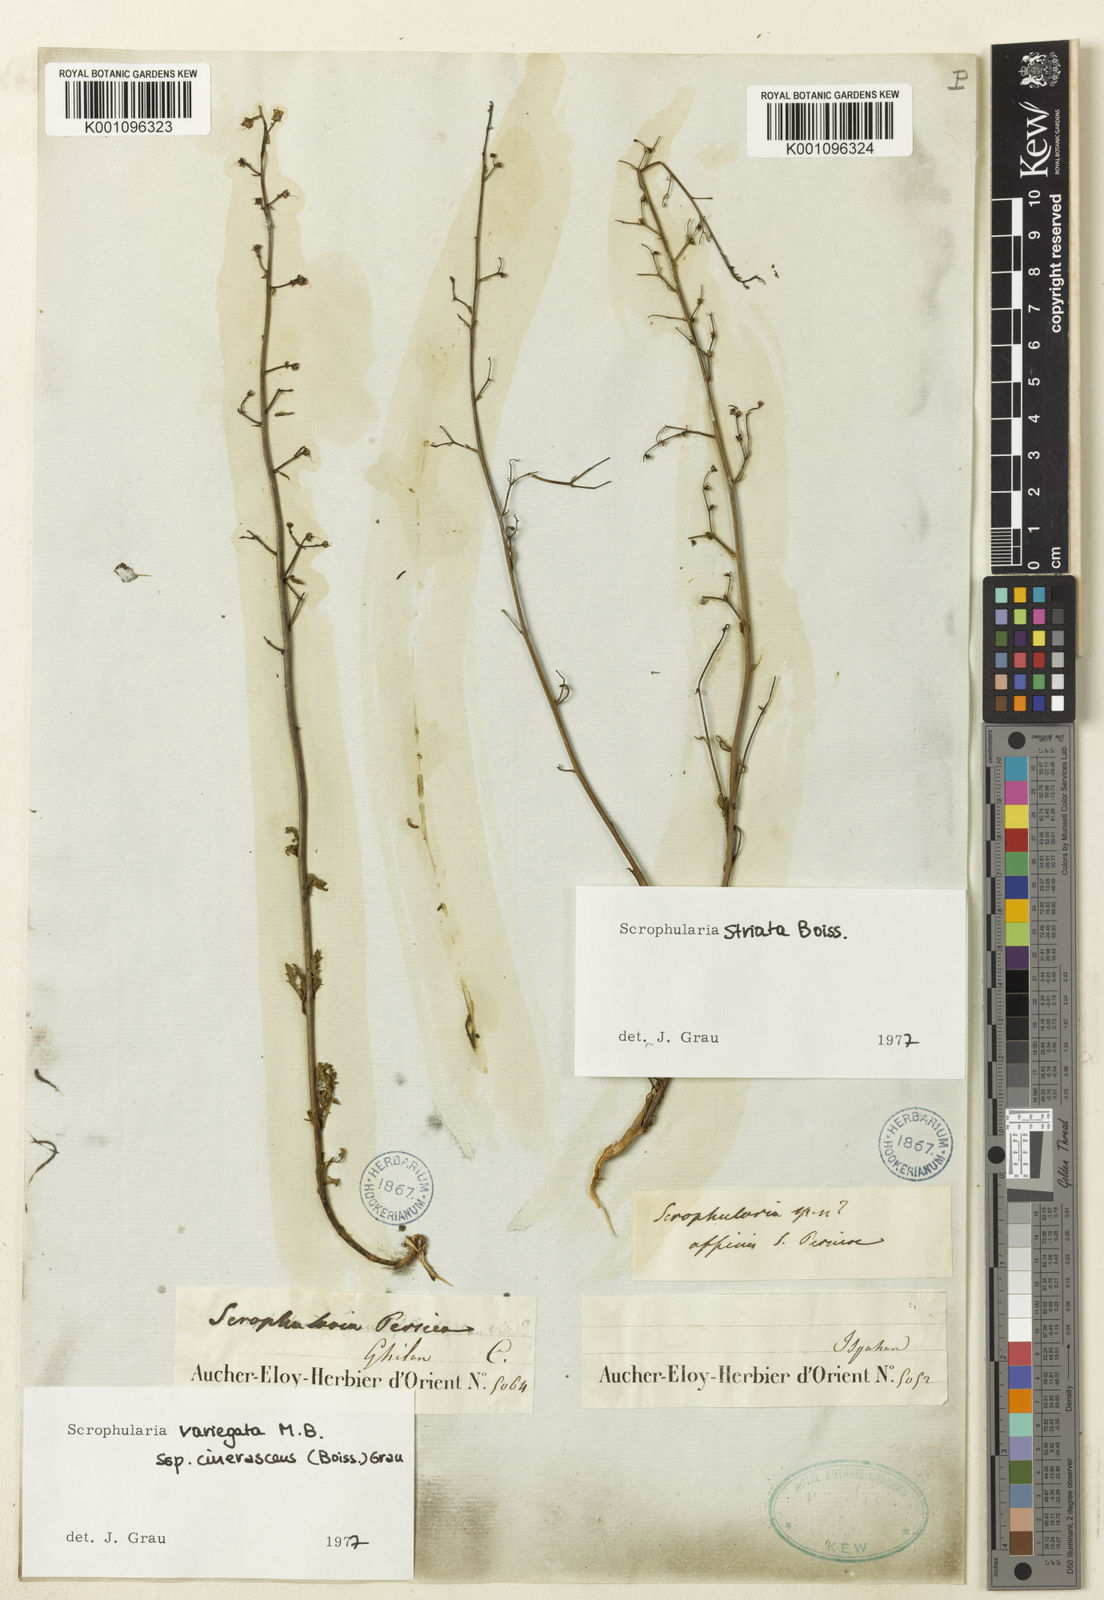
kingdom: Plantae
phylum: Tracheophyta
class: Magnoliopsida
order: Lamiales
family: Scrophulariaceae
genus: Scrophularia
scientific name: Scrophularia versicolor
